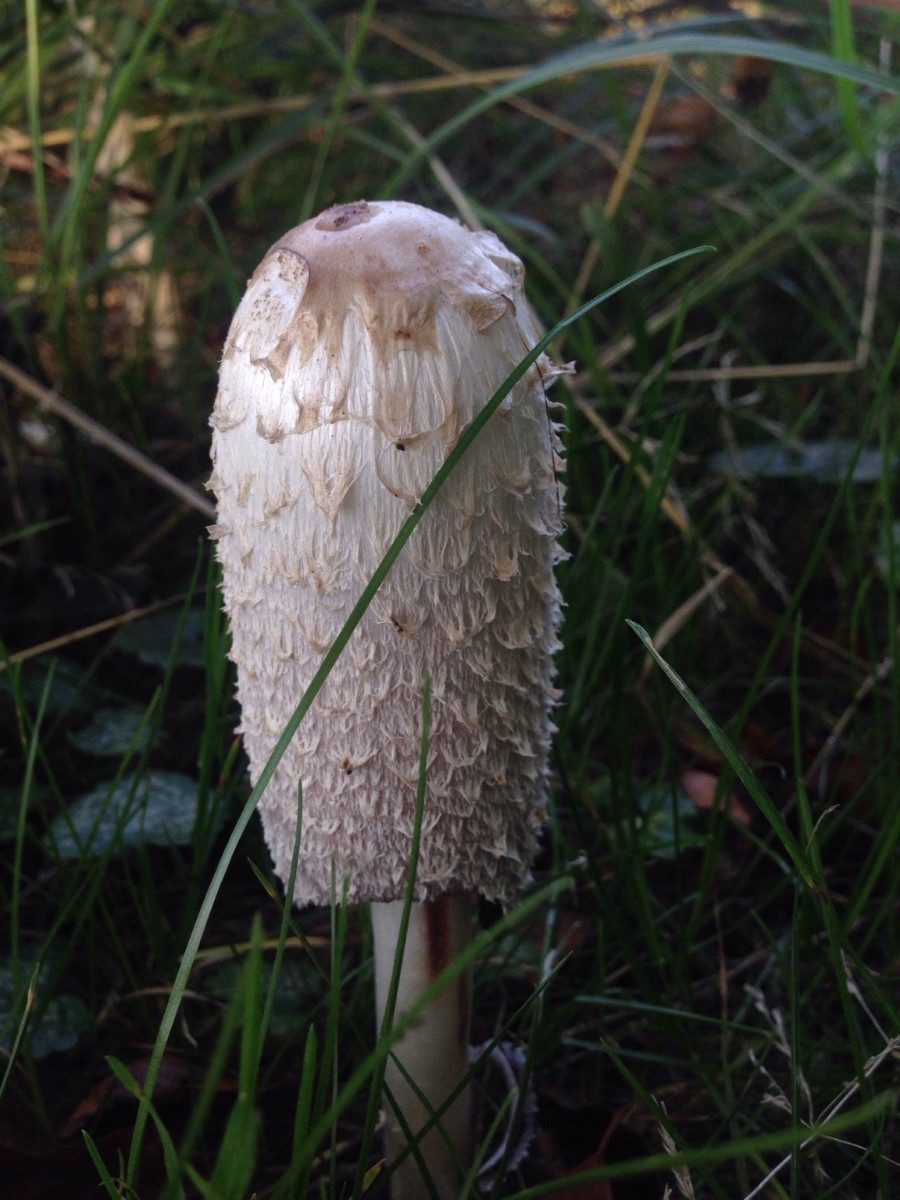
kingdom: Fungi
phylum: Basidiomycota
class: Agaricomycetes
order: Agaricales
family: Agaricaceae
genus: Coprinus
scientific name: Coprinus comatus
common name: stor parykhat
